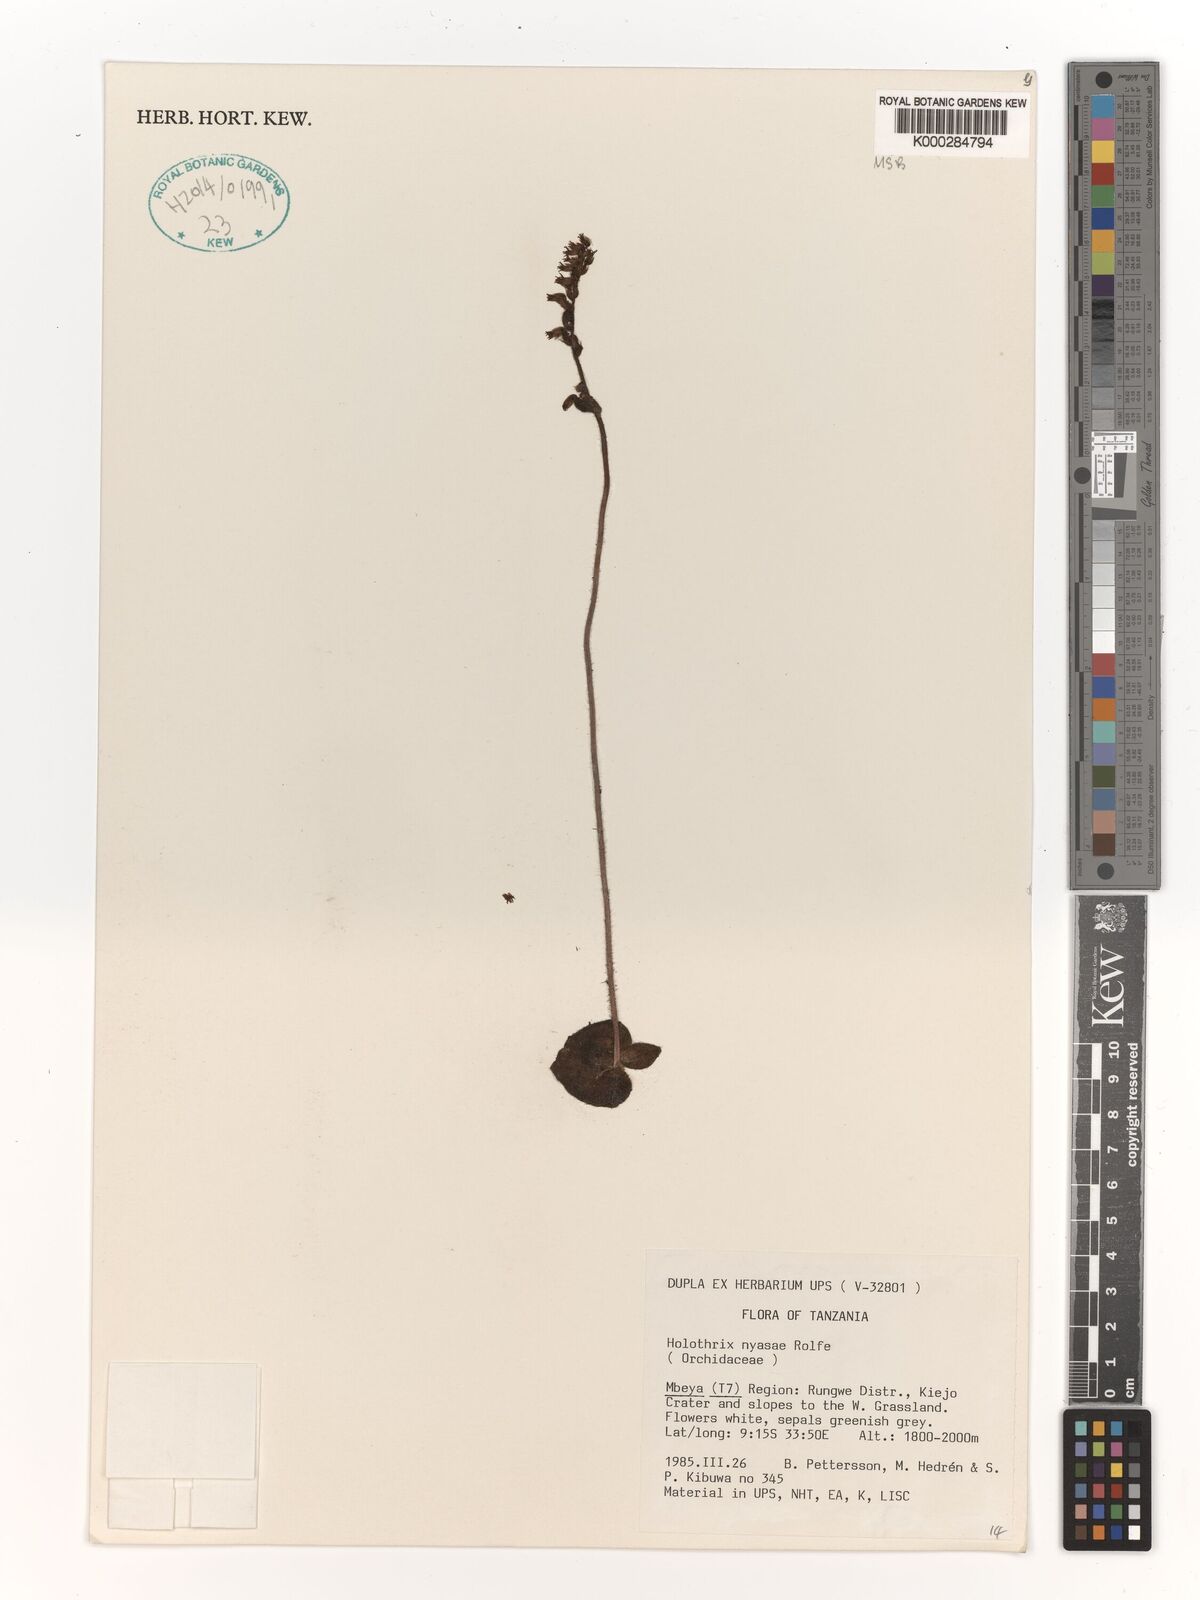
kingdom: Plantae
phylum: Tracheophyta
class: Liliopsida
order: Asparagales
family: Orchidaceae
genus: Holothrix
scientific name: Holothrix nyasae
